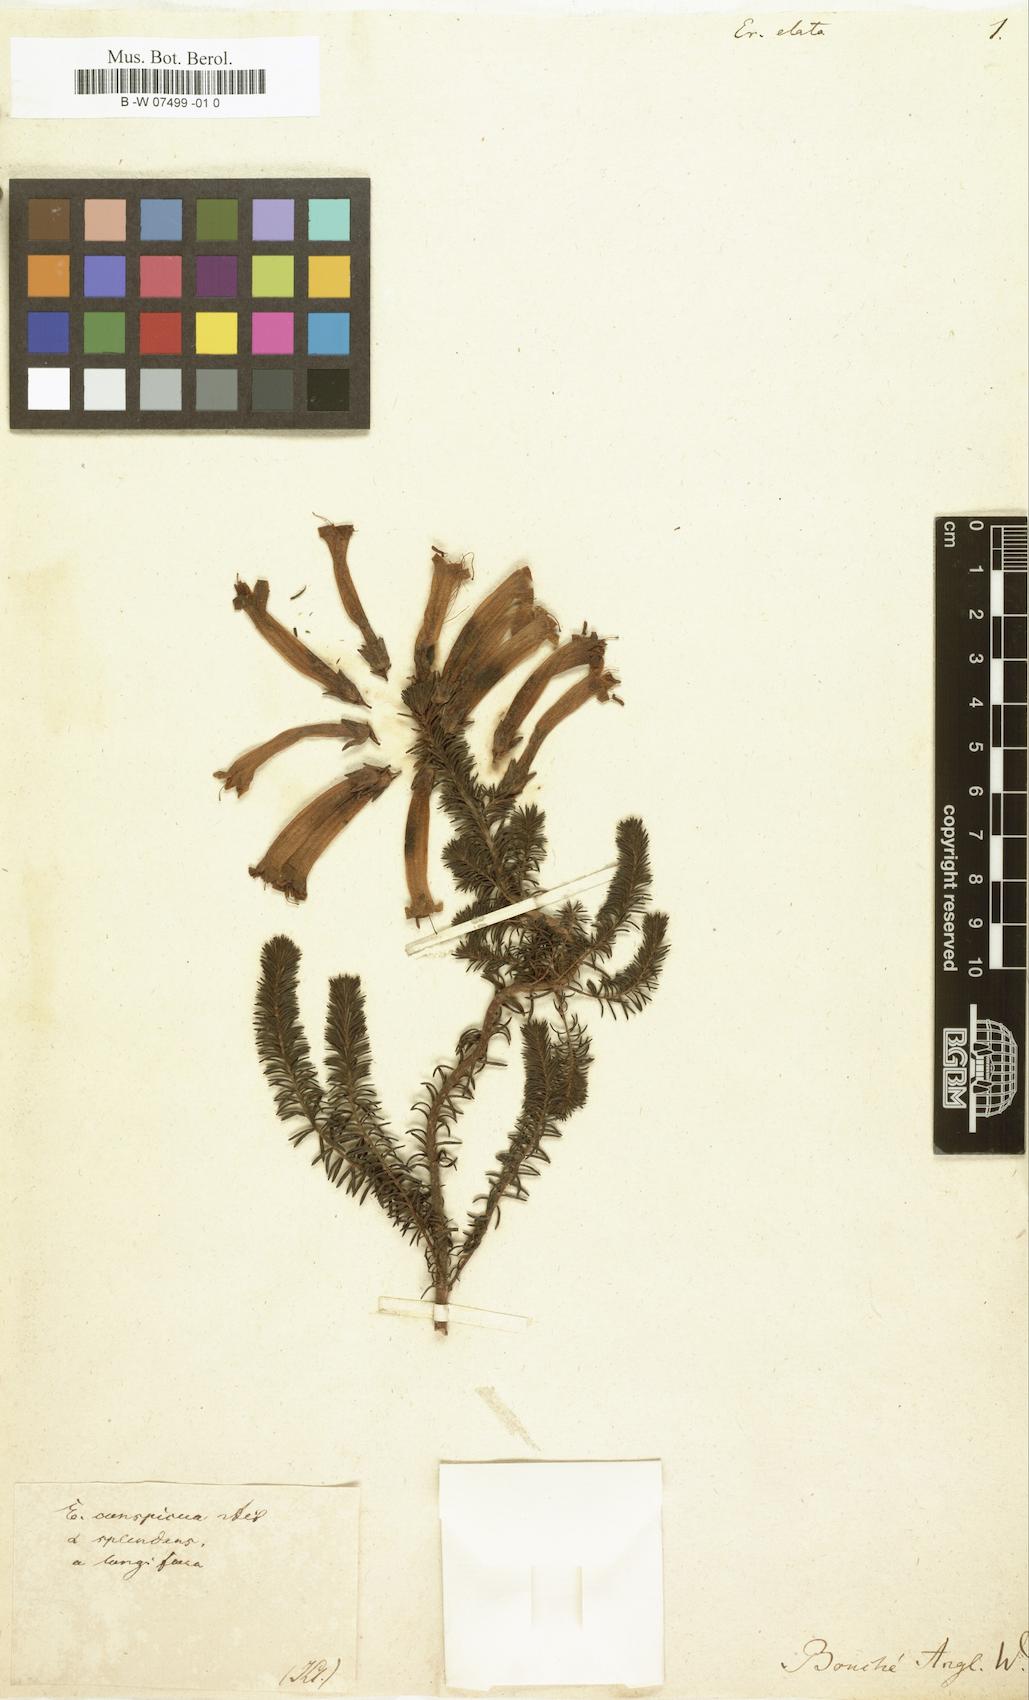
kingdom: Plantae
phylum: Tracheophyta
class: Magnoliopsida
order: Ericales
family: Ericaceae
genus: Erica
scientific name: Erica arborea
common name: Tree heath
